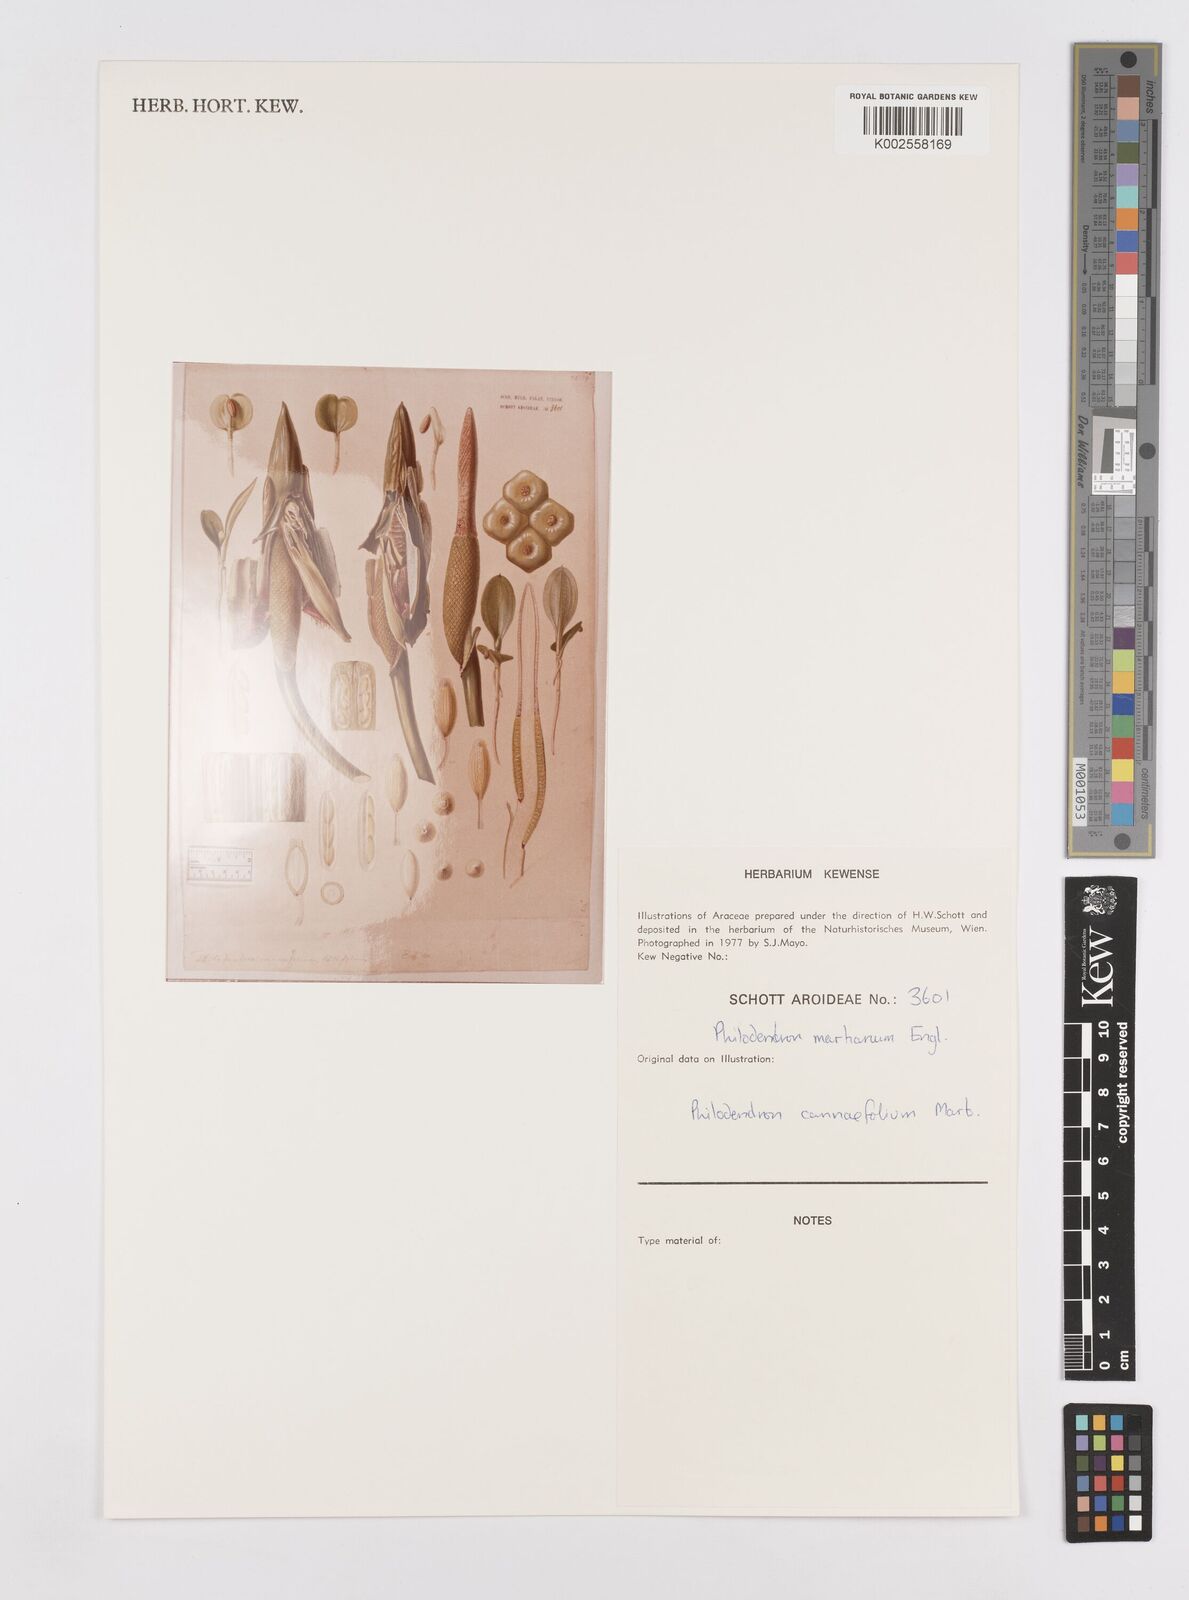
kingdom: Plantae
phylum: Tracheophyta
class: Liliopsida
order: Alismatales
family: Araceae
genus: Philodendron
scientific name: Philodendron martianum
